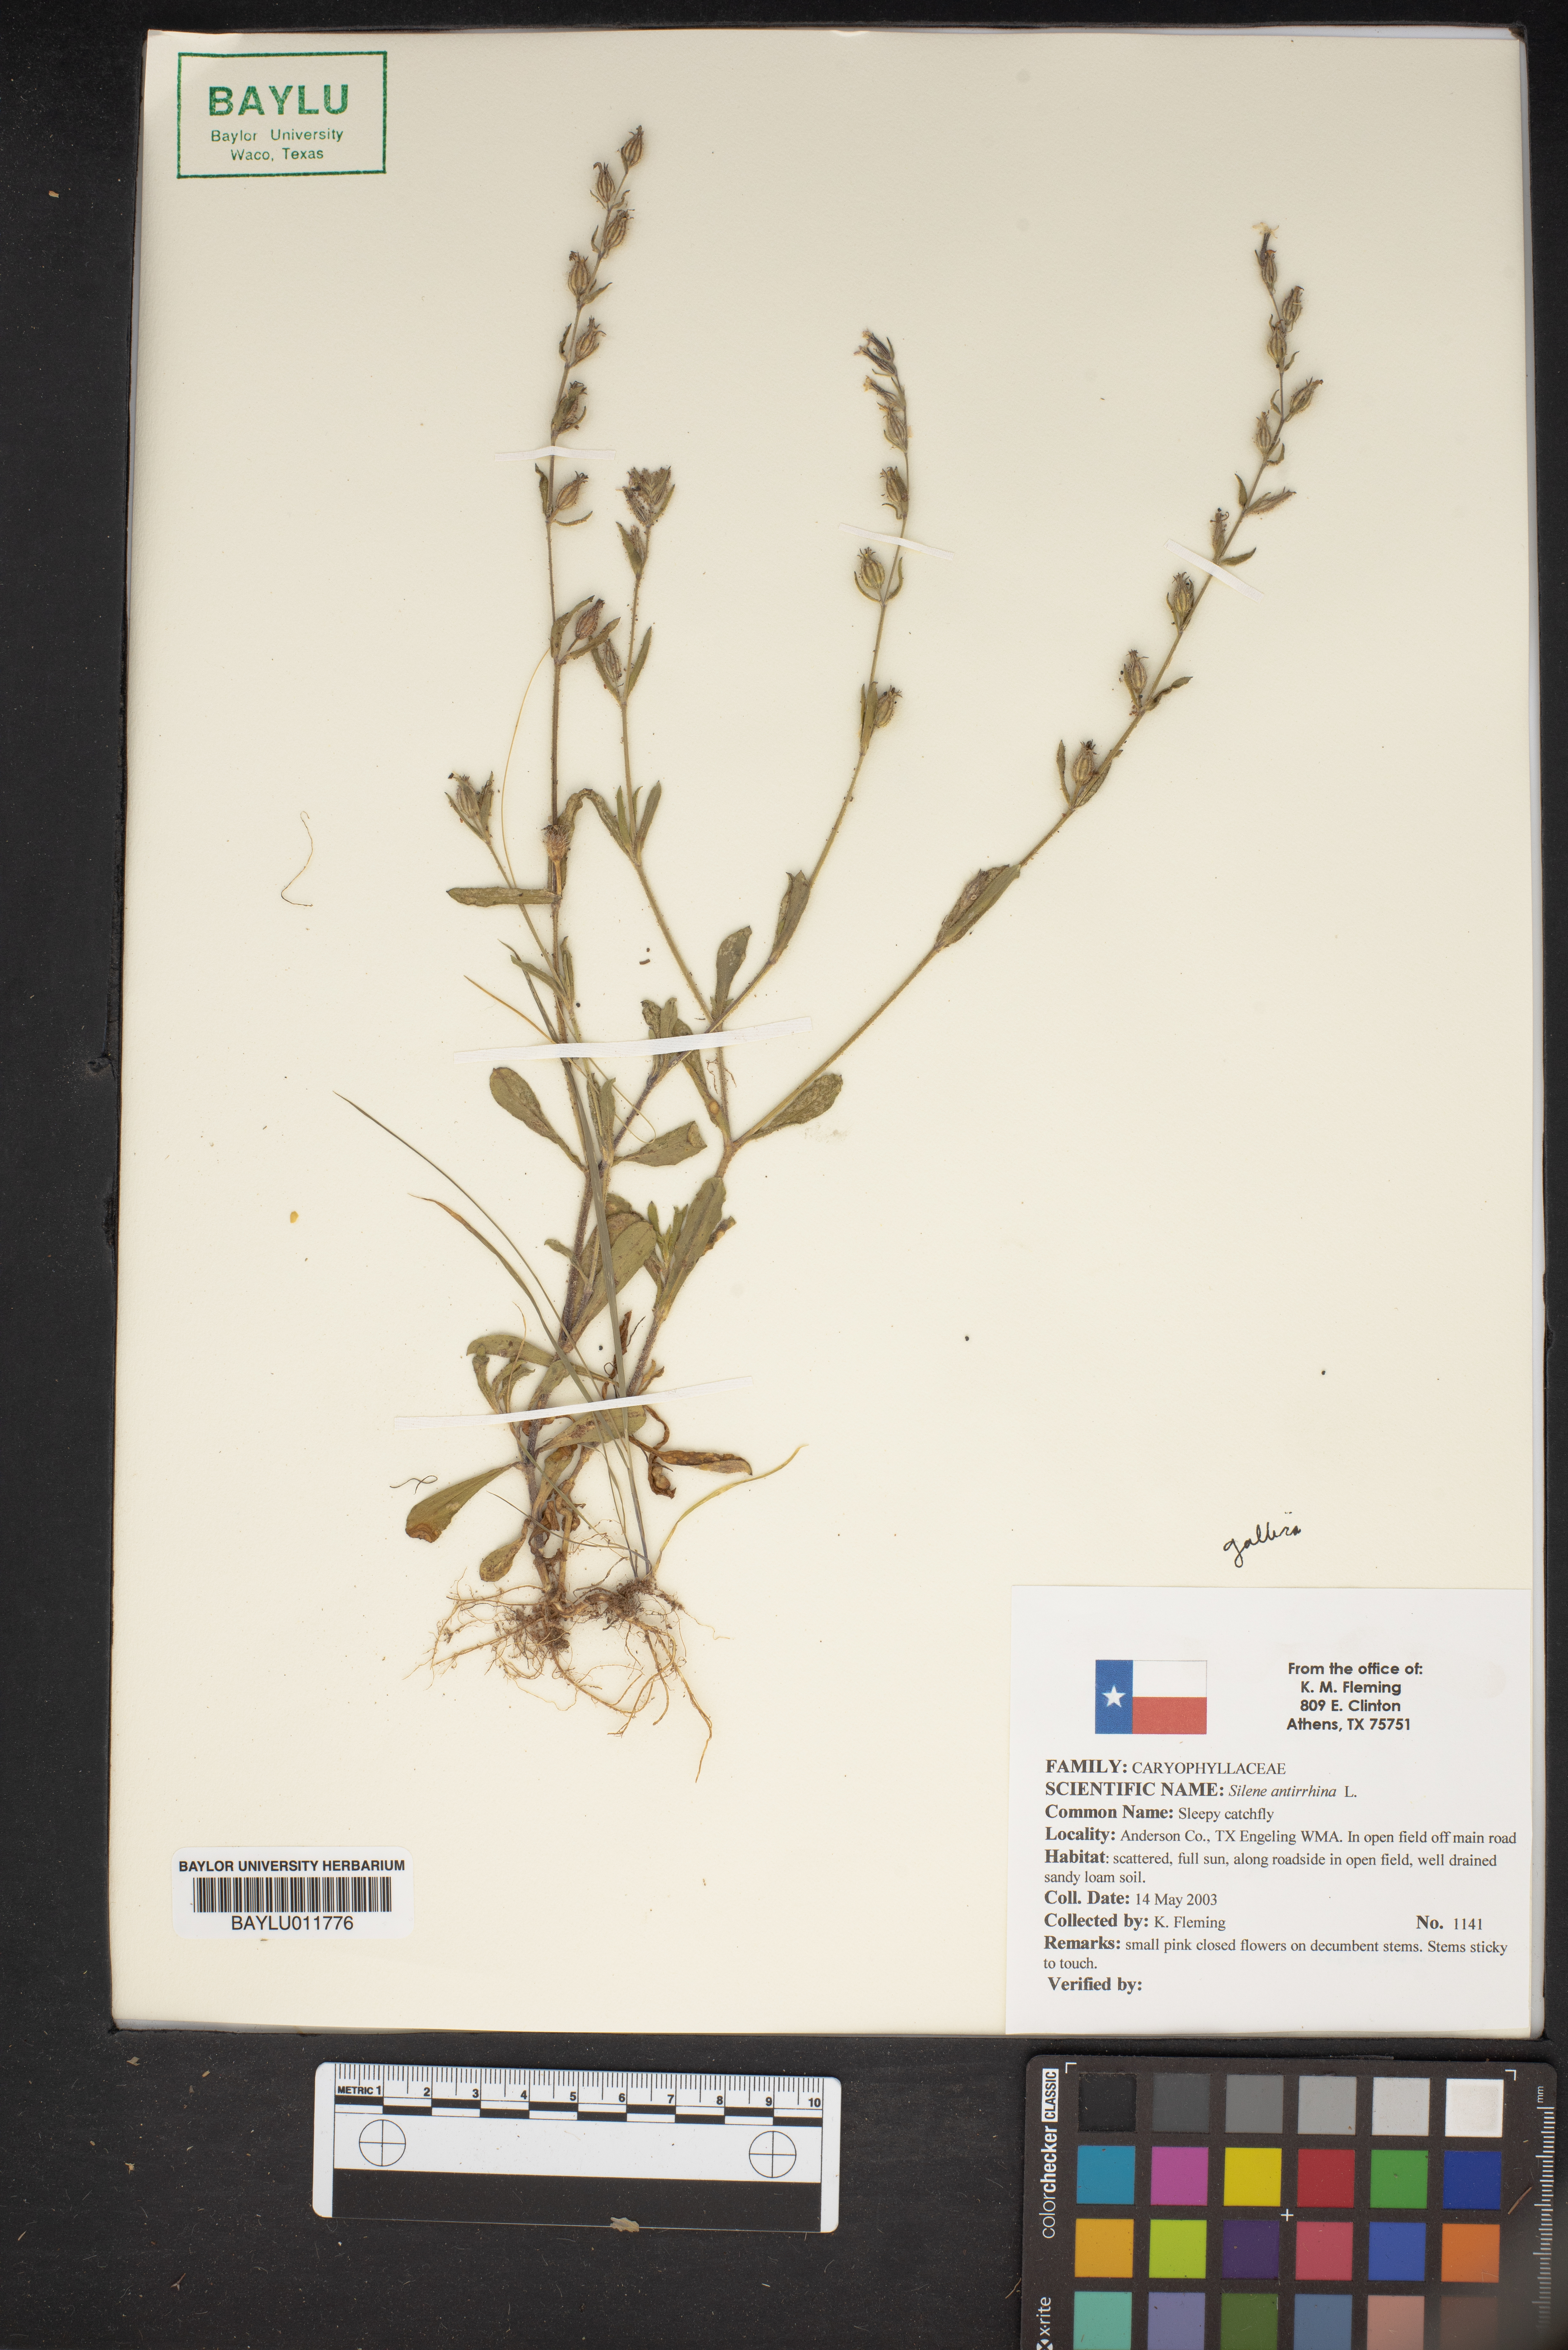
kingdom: Plantae
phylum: Tracheophyta
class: Magnoliopsida
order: Caryophyllales
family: Caryophyllaceae
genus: Silene
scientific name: Silene antirrhina
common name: Sleepy catchfly
